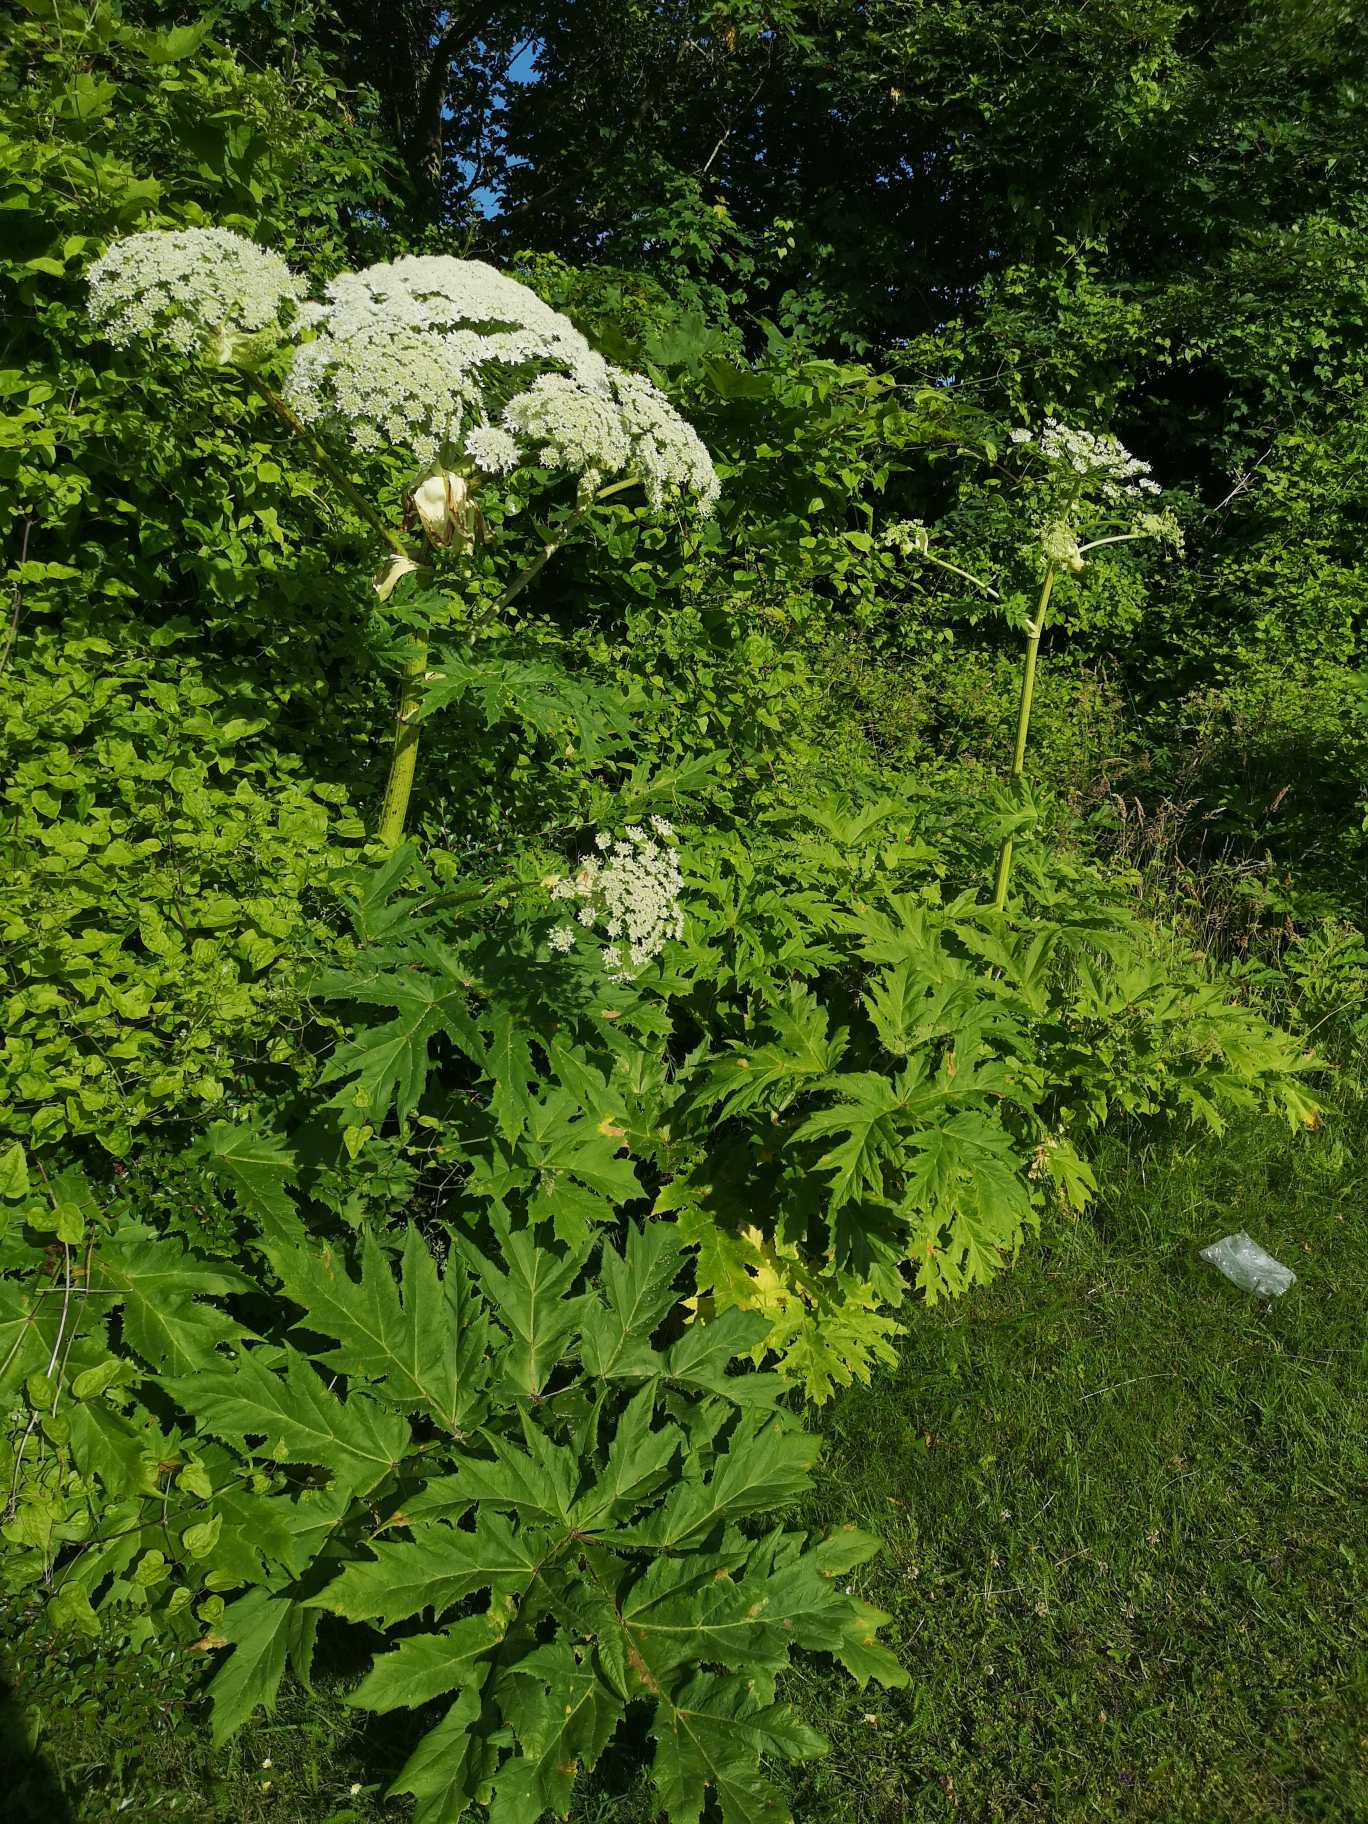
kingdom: Plantae
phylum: Tracheophyta
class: Magnoliopsida
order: Apiales
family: Apiaceae
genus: Heracleum
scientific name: Heracleum mantegazzianum
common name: Kæmpe-bjørneklo
